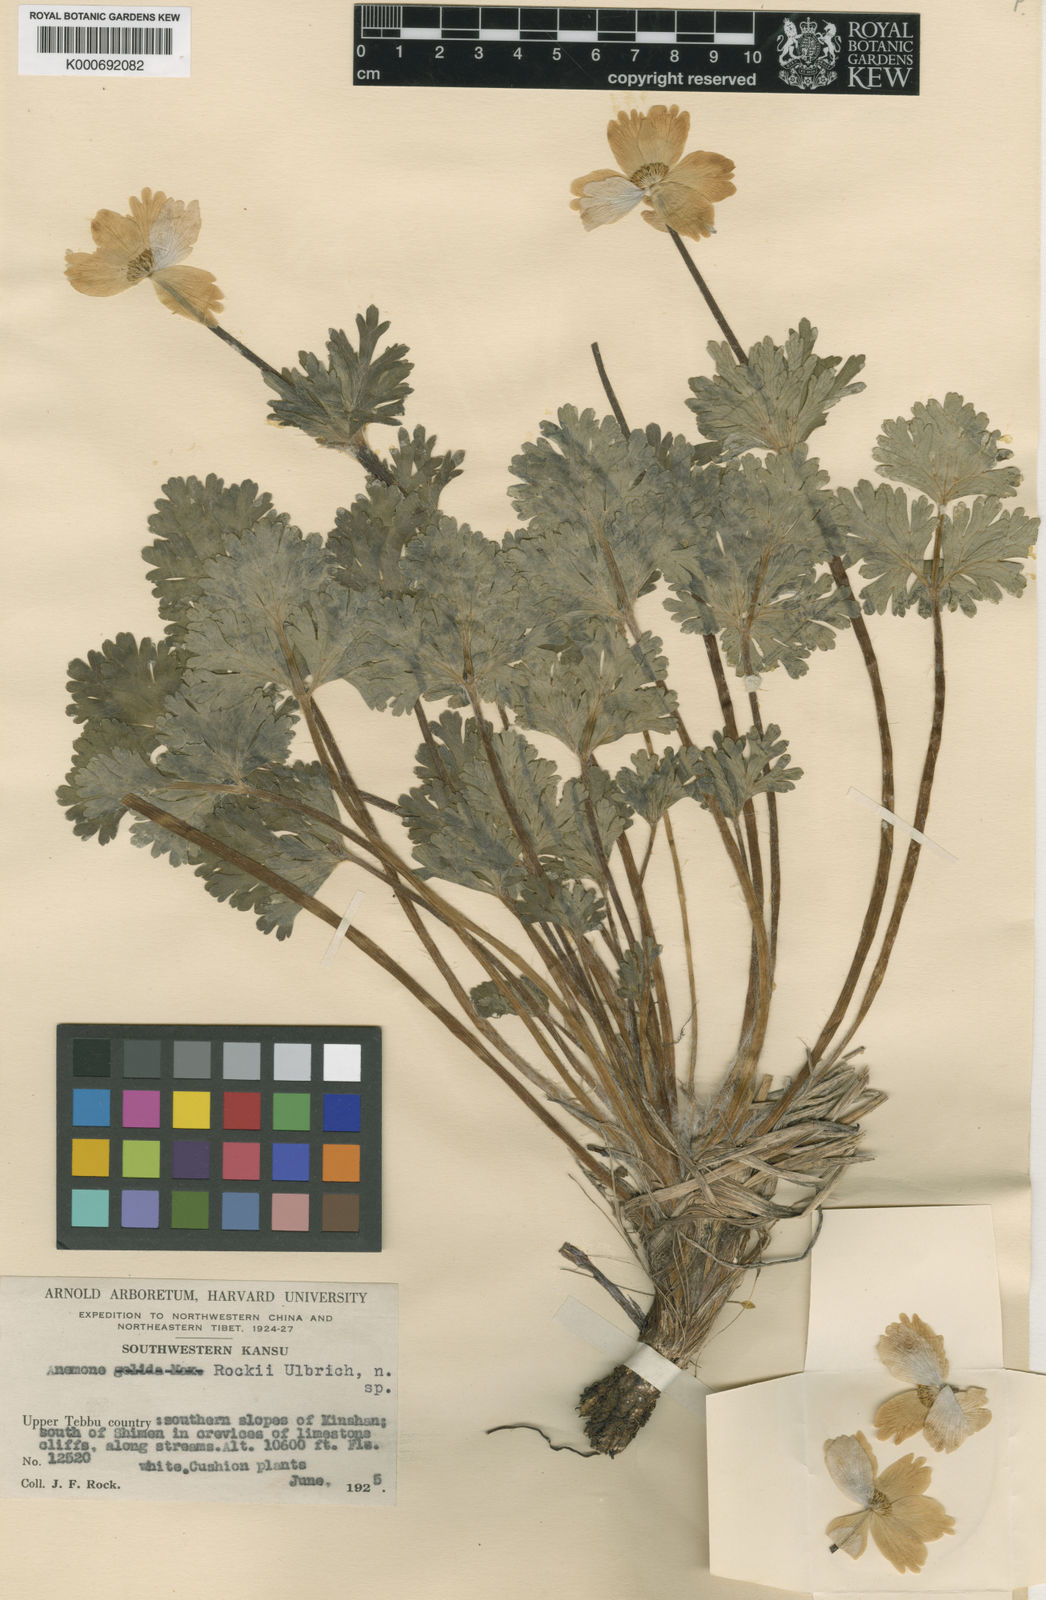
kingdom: Plantae
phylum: Tracheophyta
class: Magnoliopsida
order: Ranunculales
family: Ranunculaceae
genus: Anemonastrum
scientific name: Anemonastrum rockii
